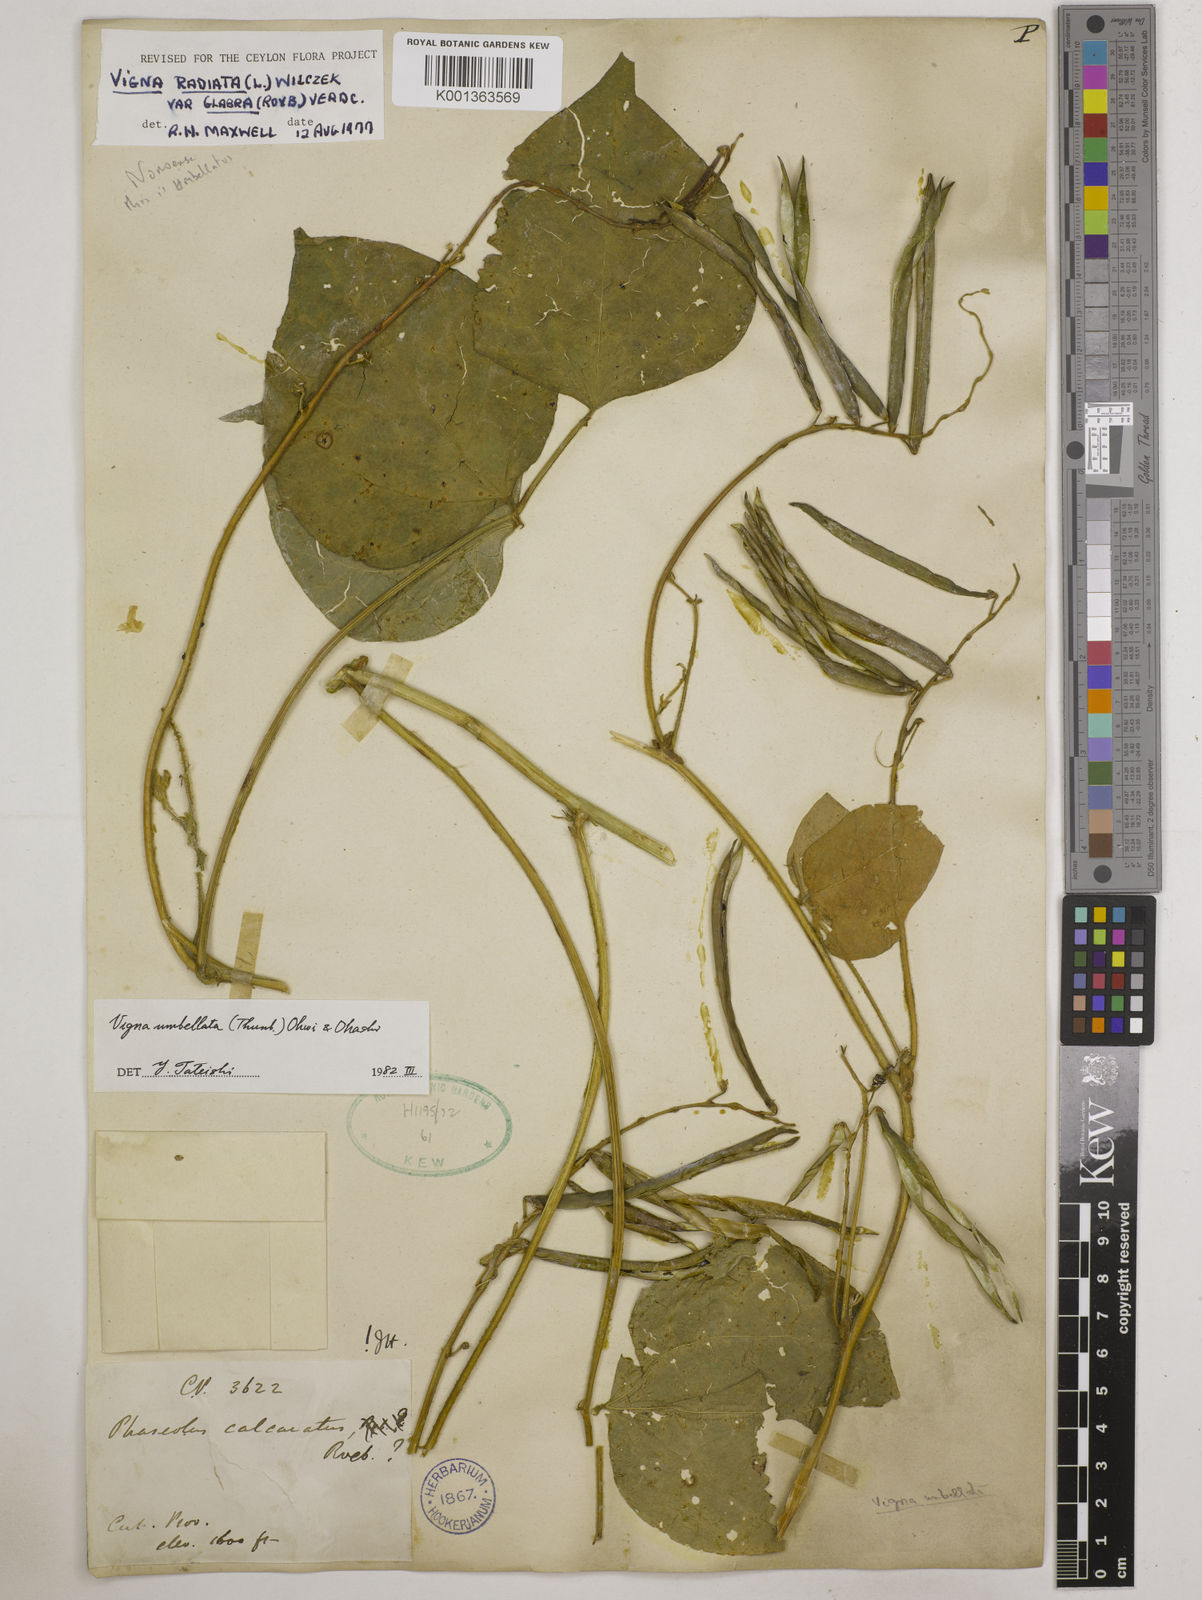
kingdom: Plantae
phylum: Tracheophyta
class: Magnoliopsida
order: Fabales
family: Fabaceae
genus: Vigna
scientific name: Vigna umbellata
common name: Oriental-bean
